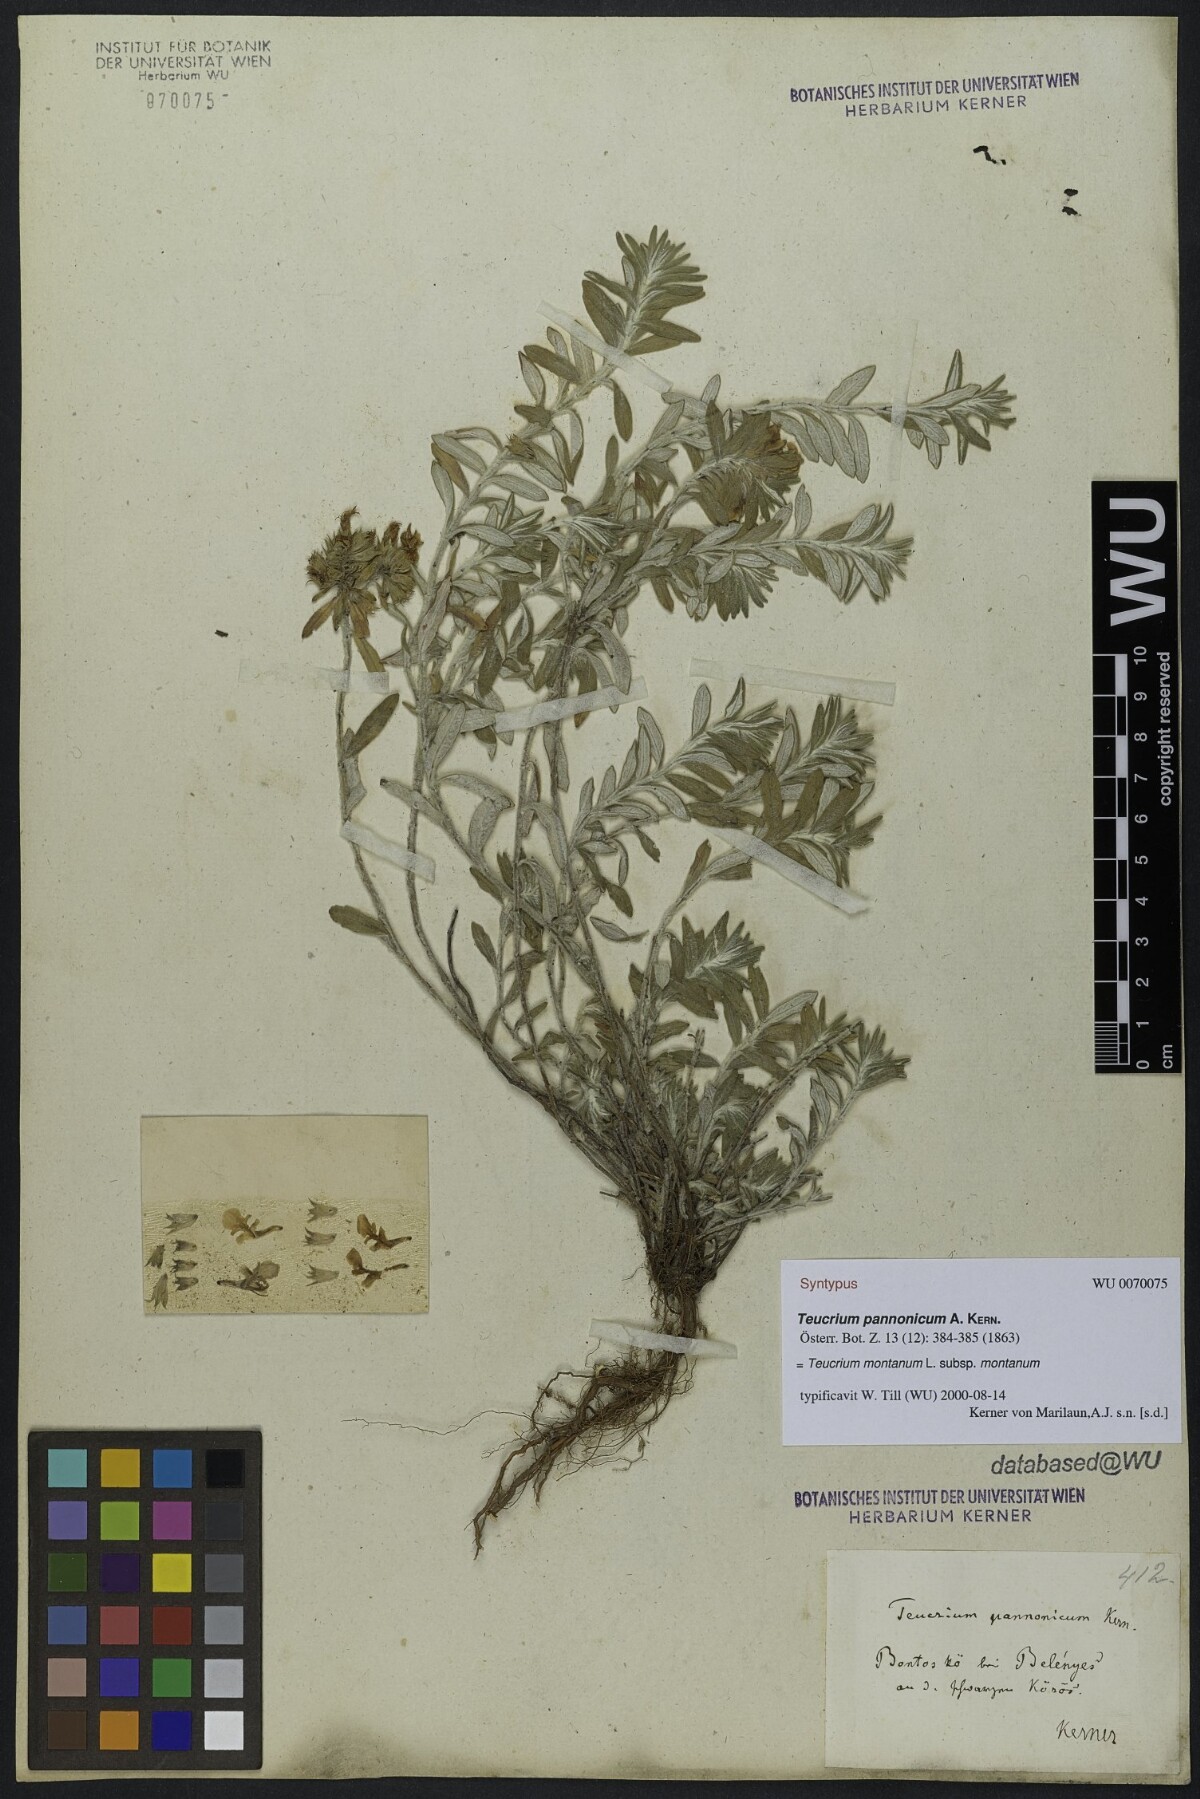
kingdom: Plantae
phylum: Tracheophyta
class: Magnoliopsida
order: Lamiales
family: Lamiaceae
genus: Teucrium
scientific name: Teucrium montanum
